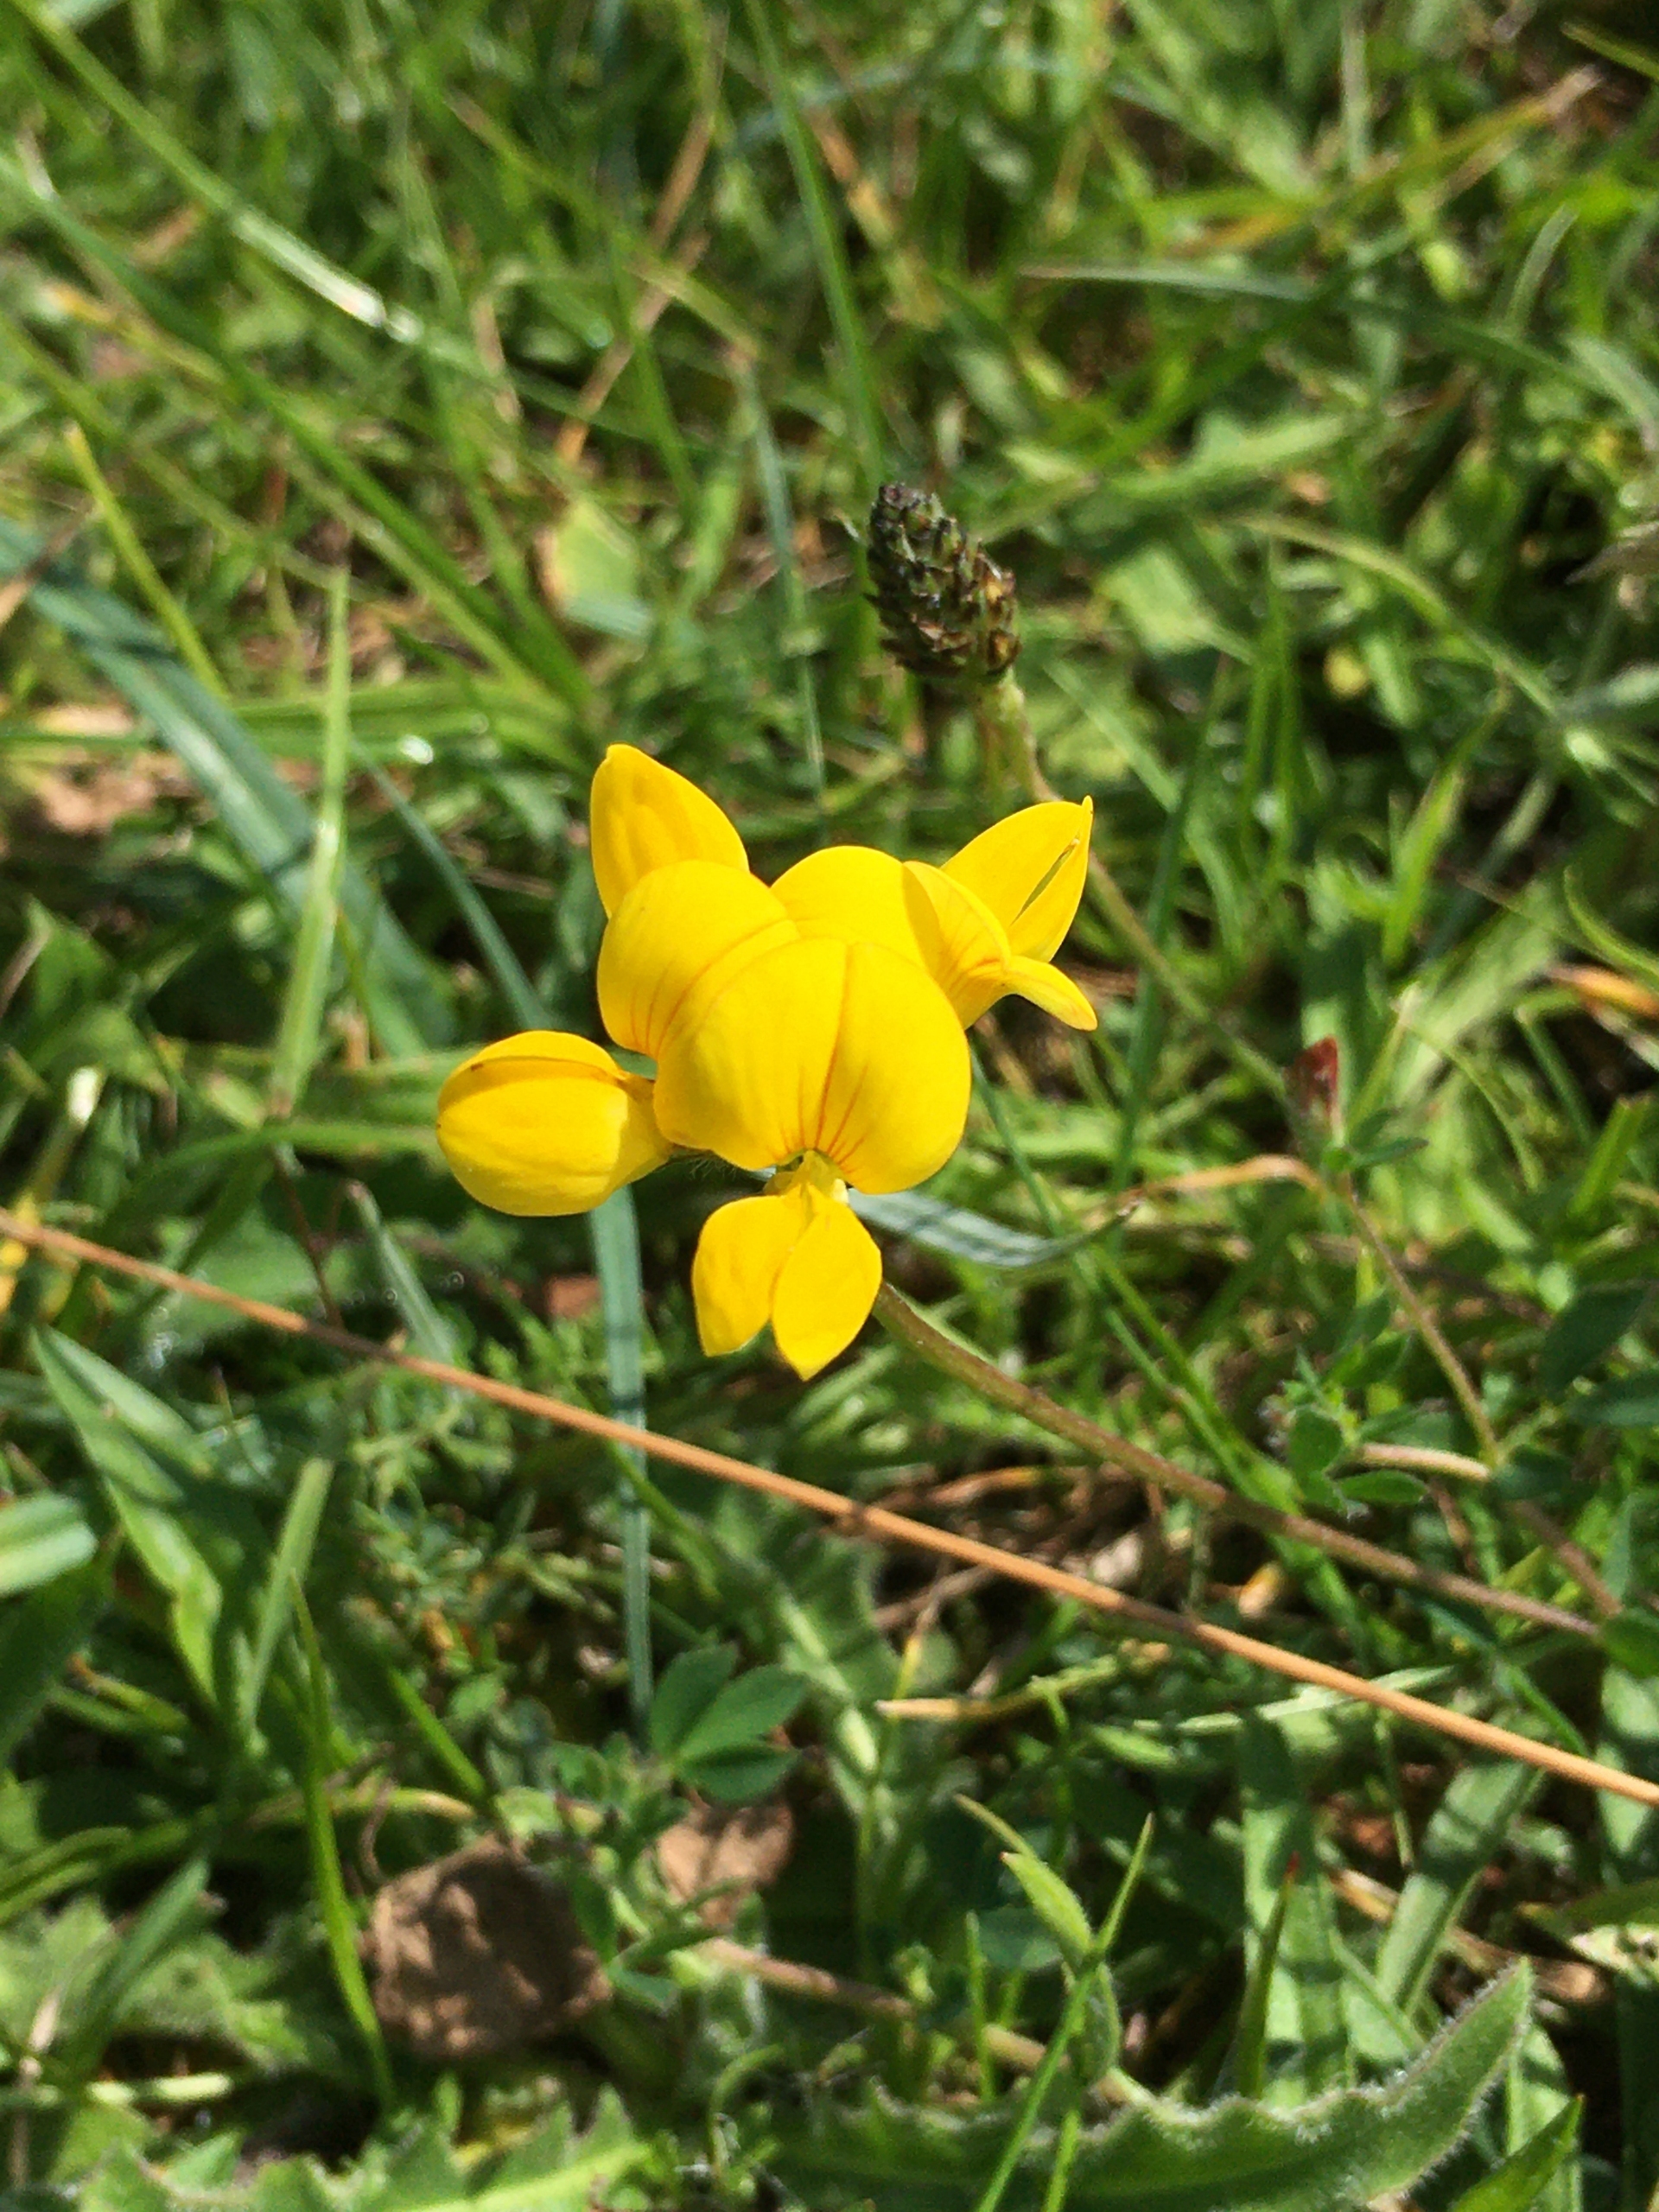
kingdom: Plantae
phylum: Tracheophyta
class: Magnoliopsida
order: Fabales
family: Fabaceae
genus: Lotus
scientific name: Lotus corniculatus
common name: Almindelig kællingetand
